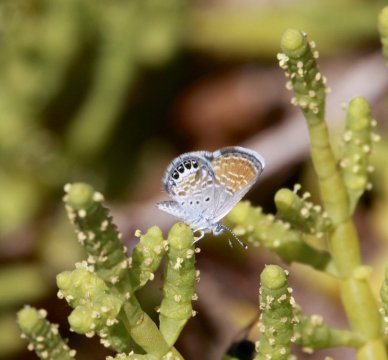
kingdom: Animalia
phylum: Arthropoda
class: Insecta
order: Lepidoptera
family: Lycaenidae
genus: Brephidium
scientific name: Brephidium exilis
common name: Western Pygmy-Blue
